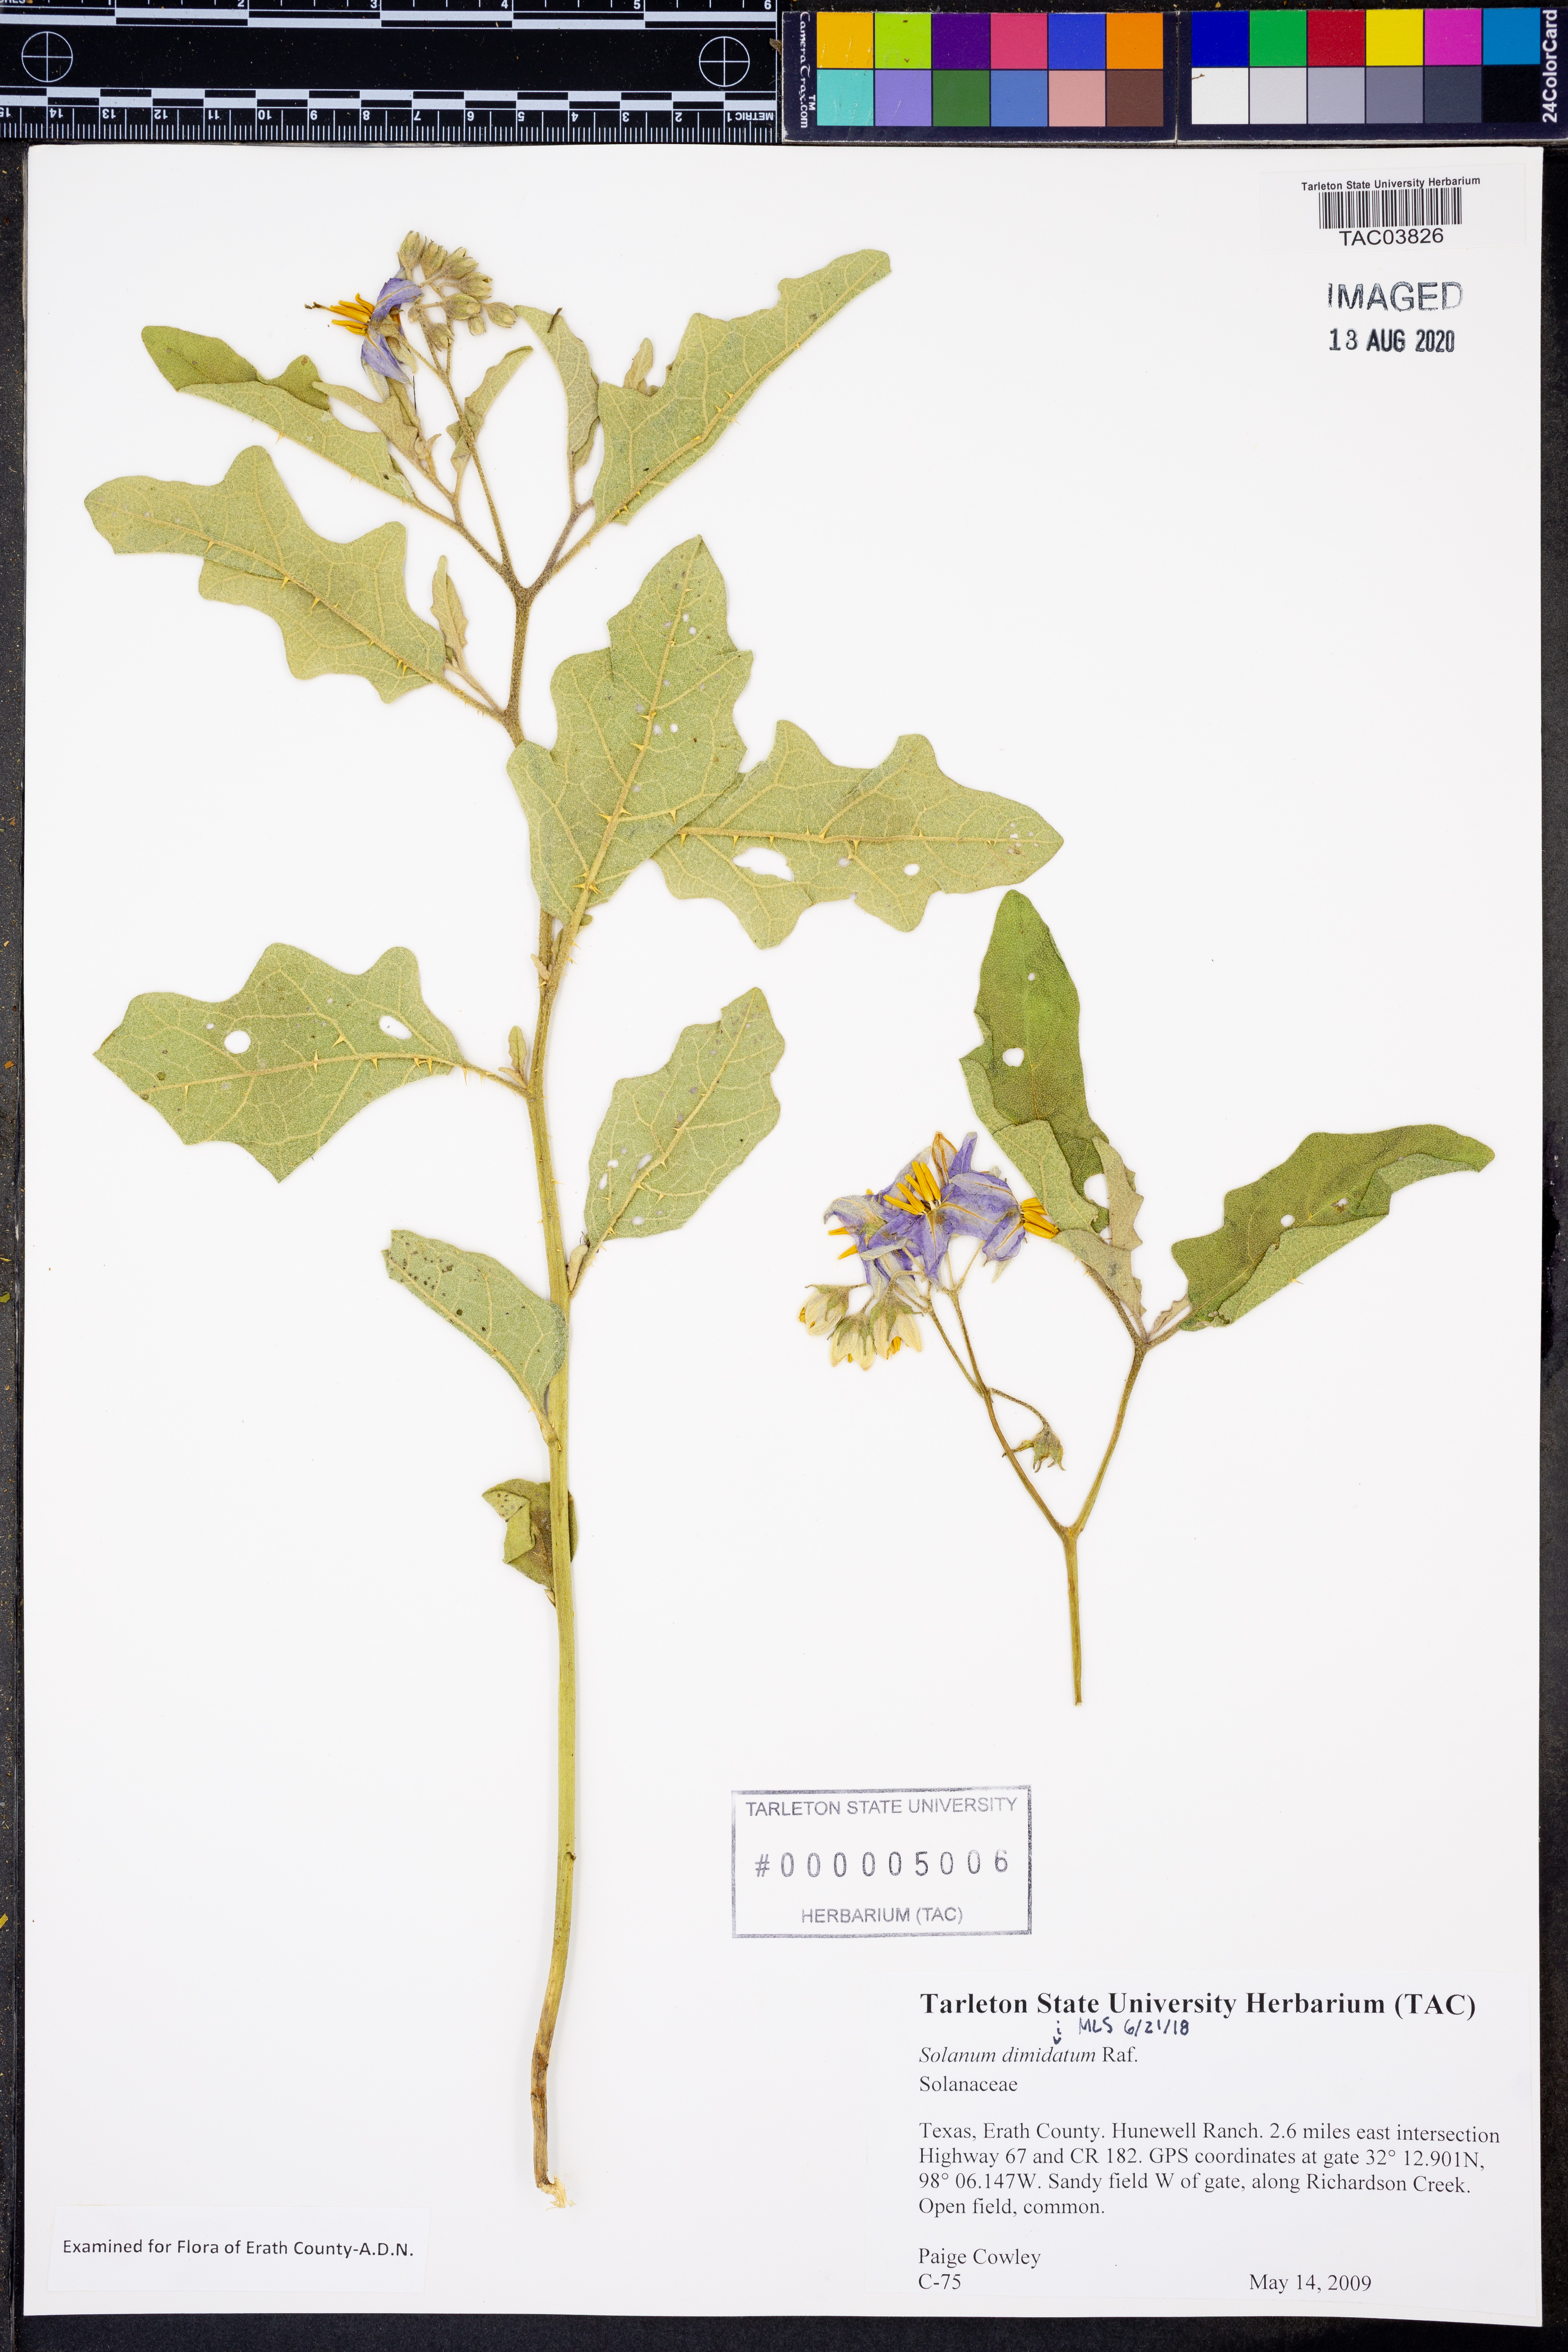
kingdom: Plantae
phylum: Tracheophyta
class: Magnoliopsida
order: Solanales
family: Solanaceae
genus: Solanum
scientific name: Solanum dimidiatum
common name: Carolina horse-nettle
